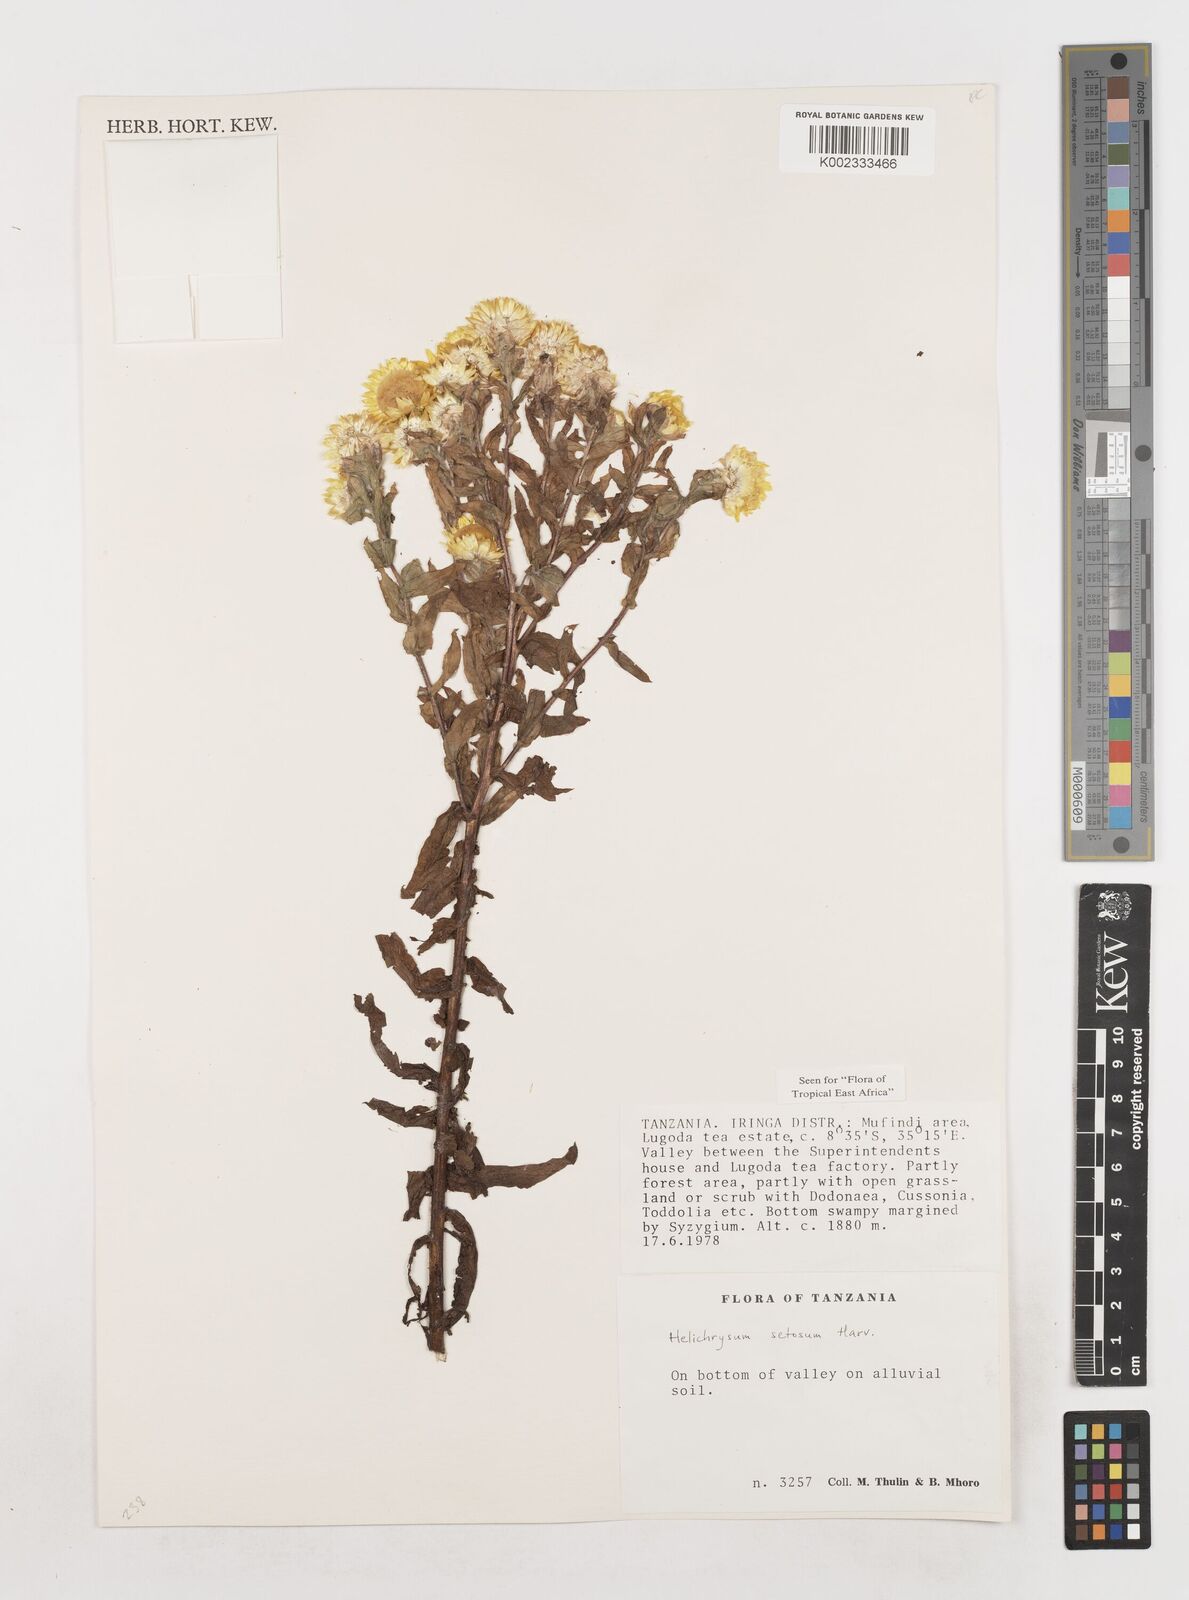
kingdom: Plantae
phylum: Tracheophyta
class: Magnoliopsida
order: Asterales
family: Asteraceae
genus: Helichrysum
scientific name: Helichrysum setosum
